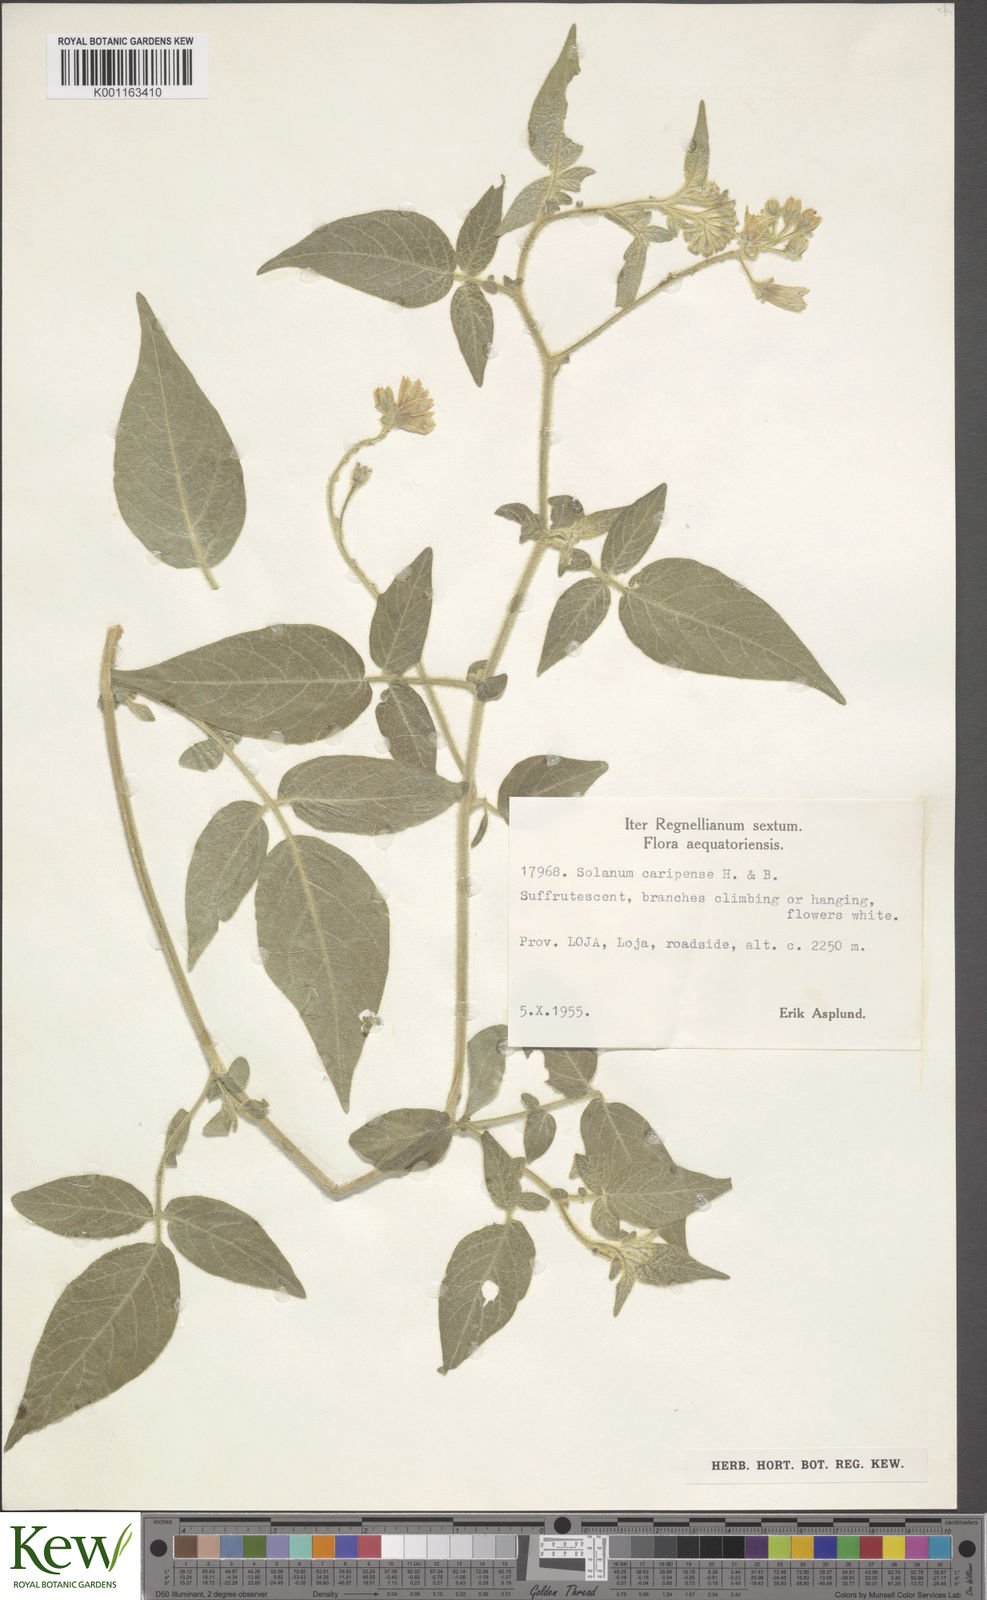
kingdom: Plantae
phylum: Tracheophyta
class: Magnoliopsida
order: Solanales
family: Solanaceae
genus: Solanum
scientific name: Solanum caripense
